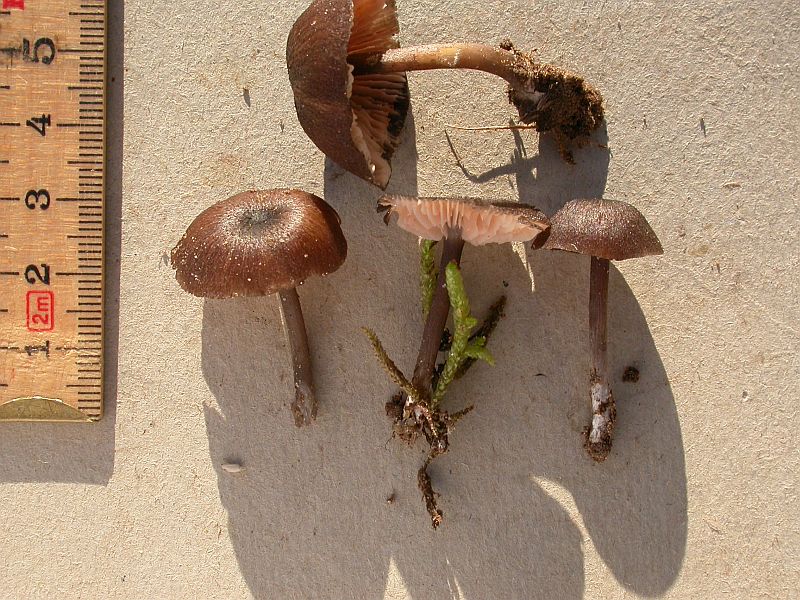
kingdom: Fungi
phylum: Basidiomycota
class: Agaricomycetes
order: Agaricales
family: Entolomataceae
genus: Entoloma
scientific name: Entoloma turci
